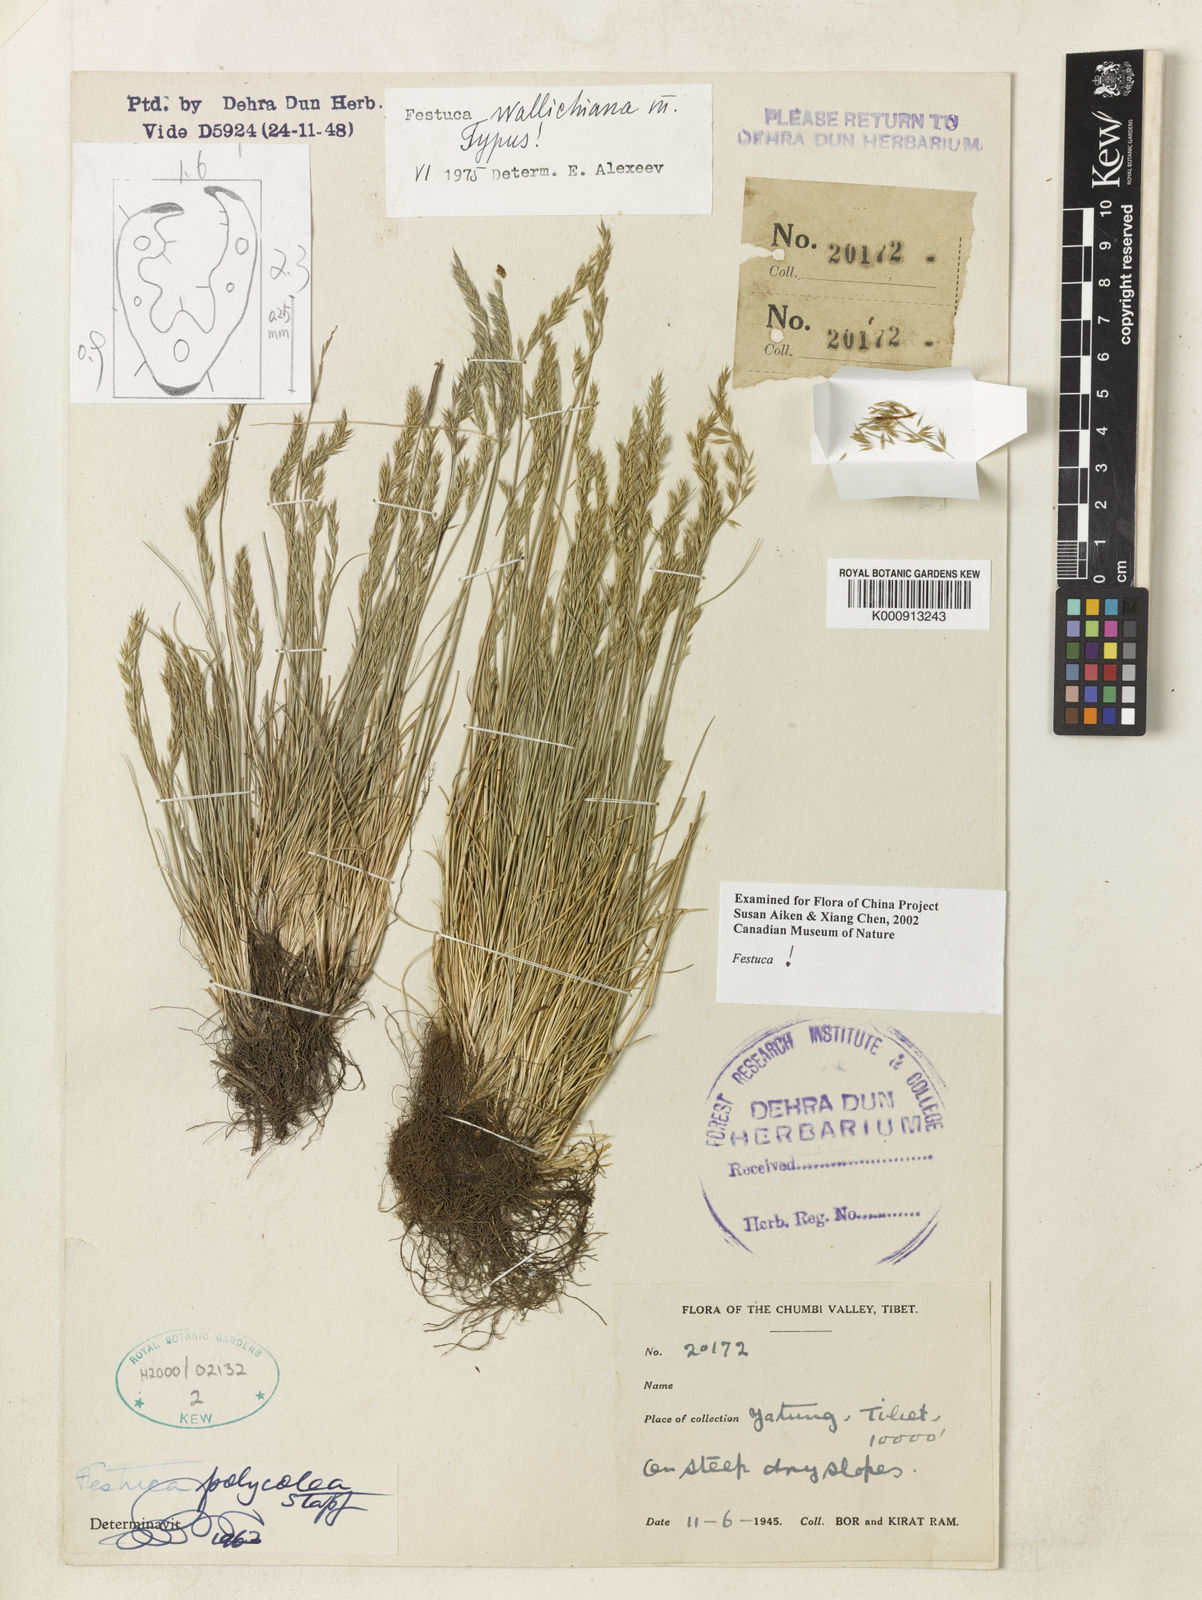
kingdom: Plantae
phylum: Tracheophyta
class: Liliopsida
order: Poales
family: Poaceae
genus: Festuca
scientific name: Festuca wallichiana
